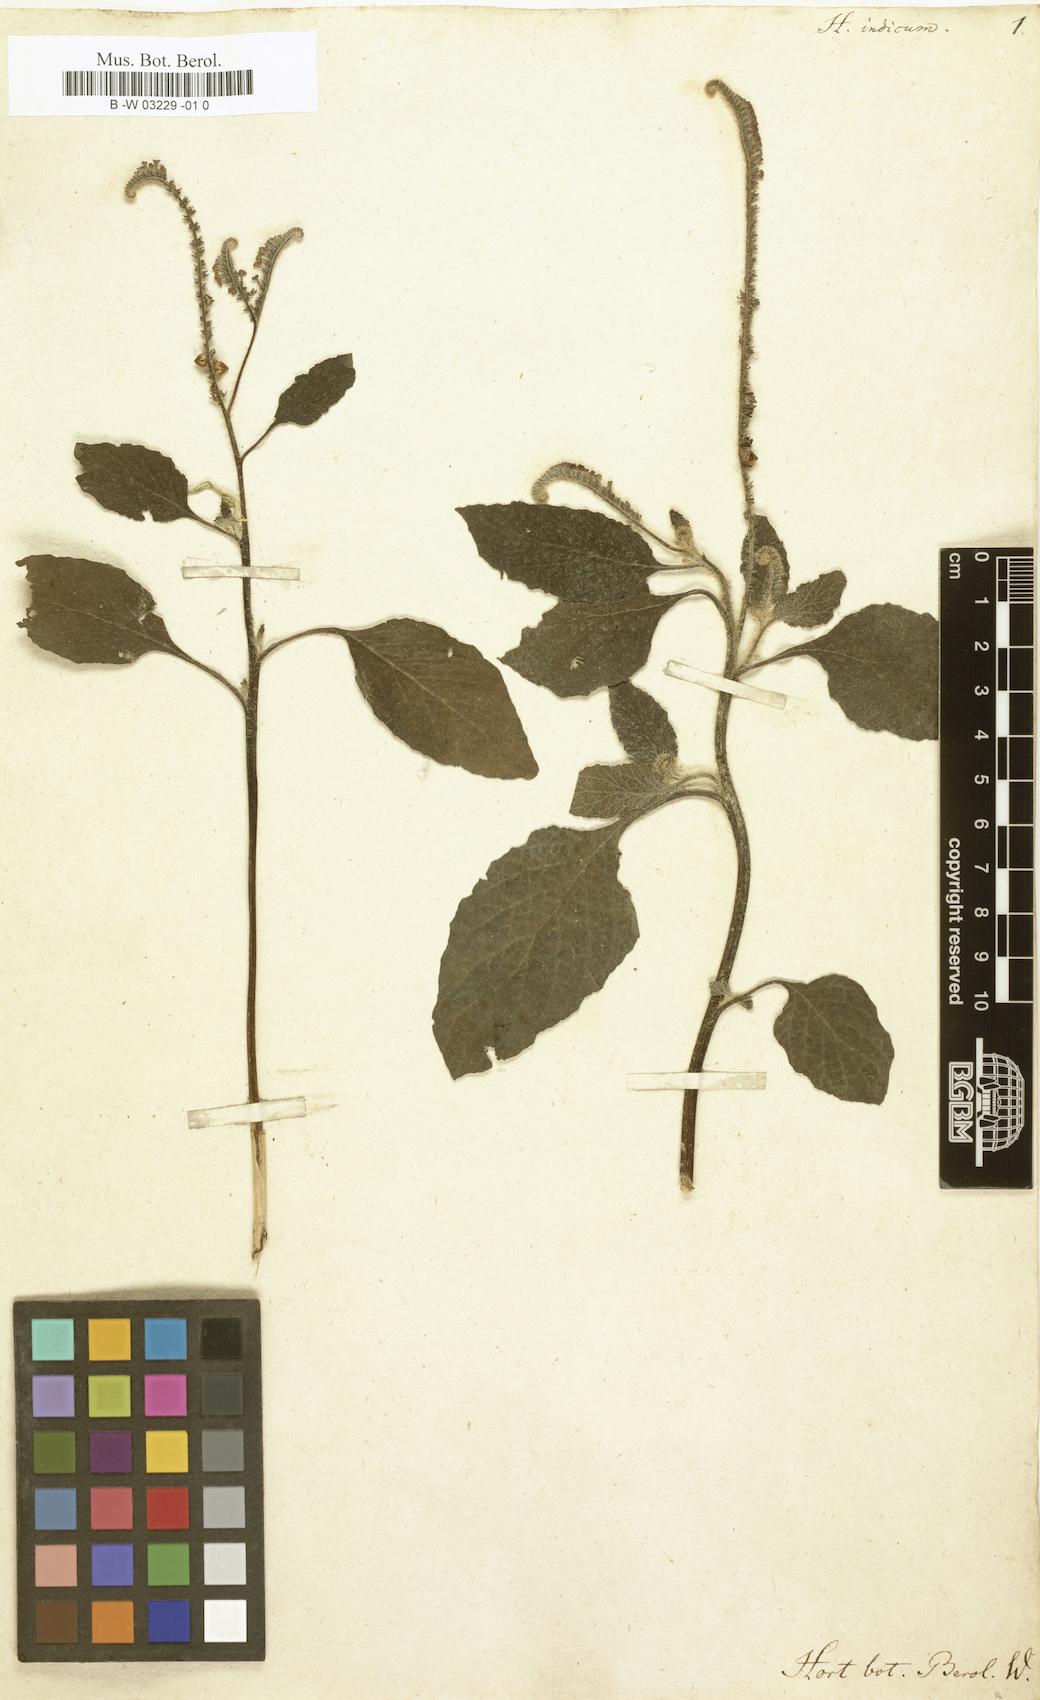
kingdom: Plantae
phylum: Tracheophyta
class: Magnoliopsida
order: Boraginales
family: Heliotropiaceae
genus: Heliotropium
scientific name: Heliotropium indicum
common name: Indian heliotrope
